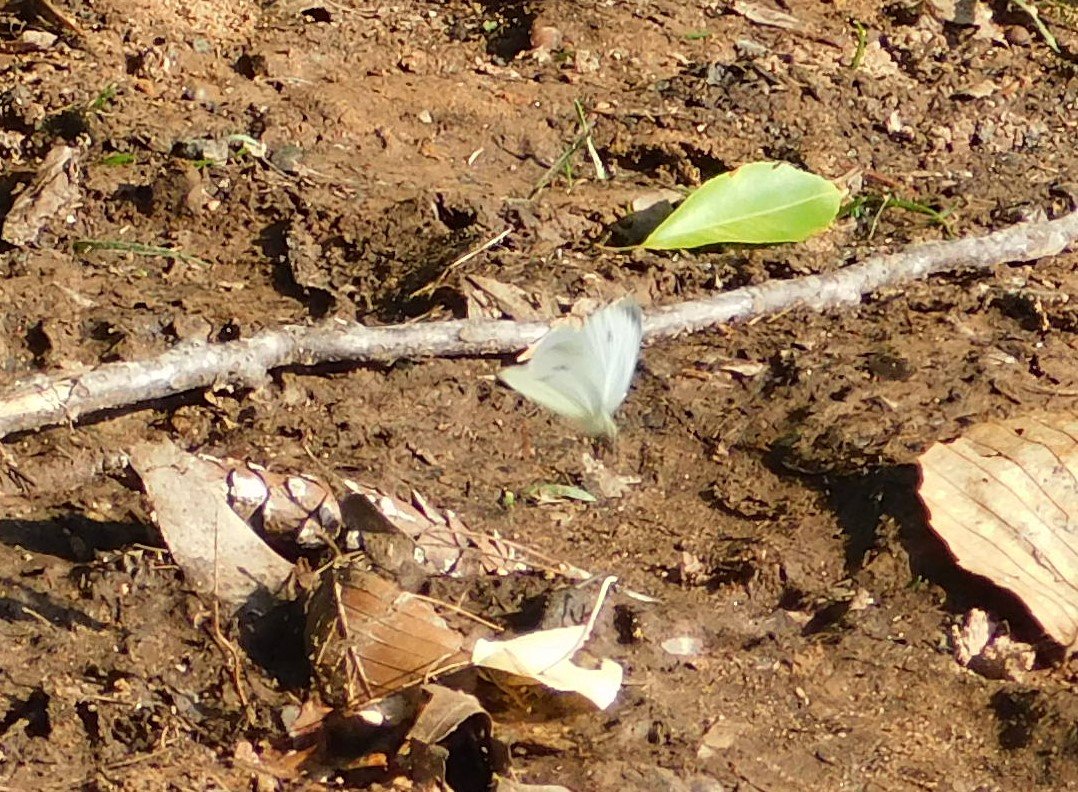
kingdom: Animalia
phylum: Arthropoda
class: Insecta
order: Lepidoptera
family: Pieridae
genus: Pieris
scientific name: Pieris rapae
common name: Cabbage White
